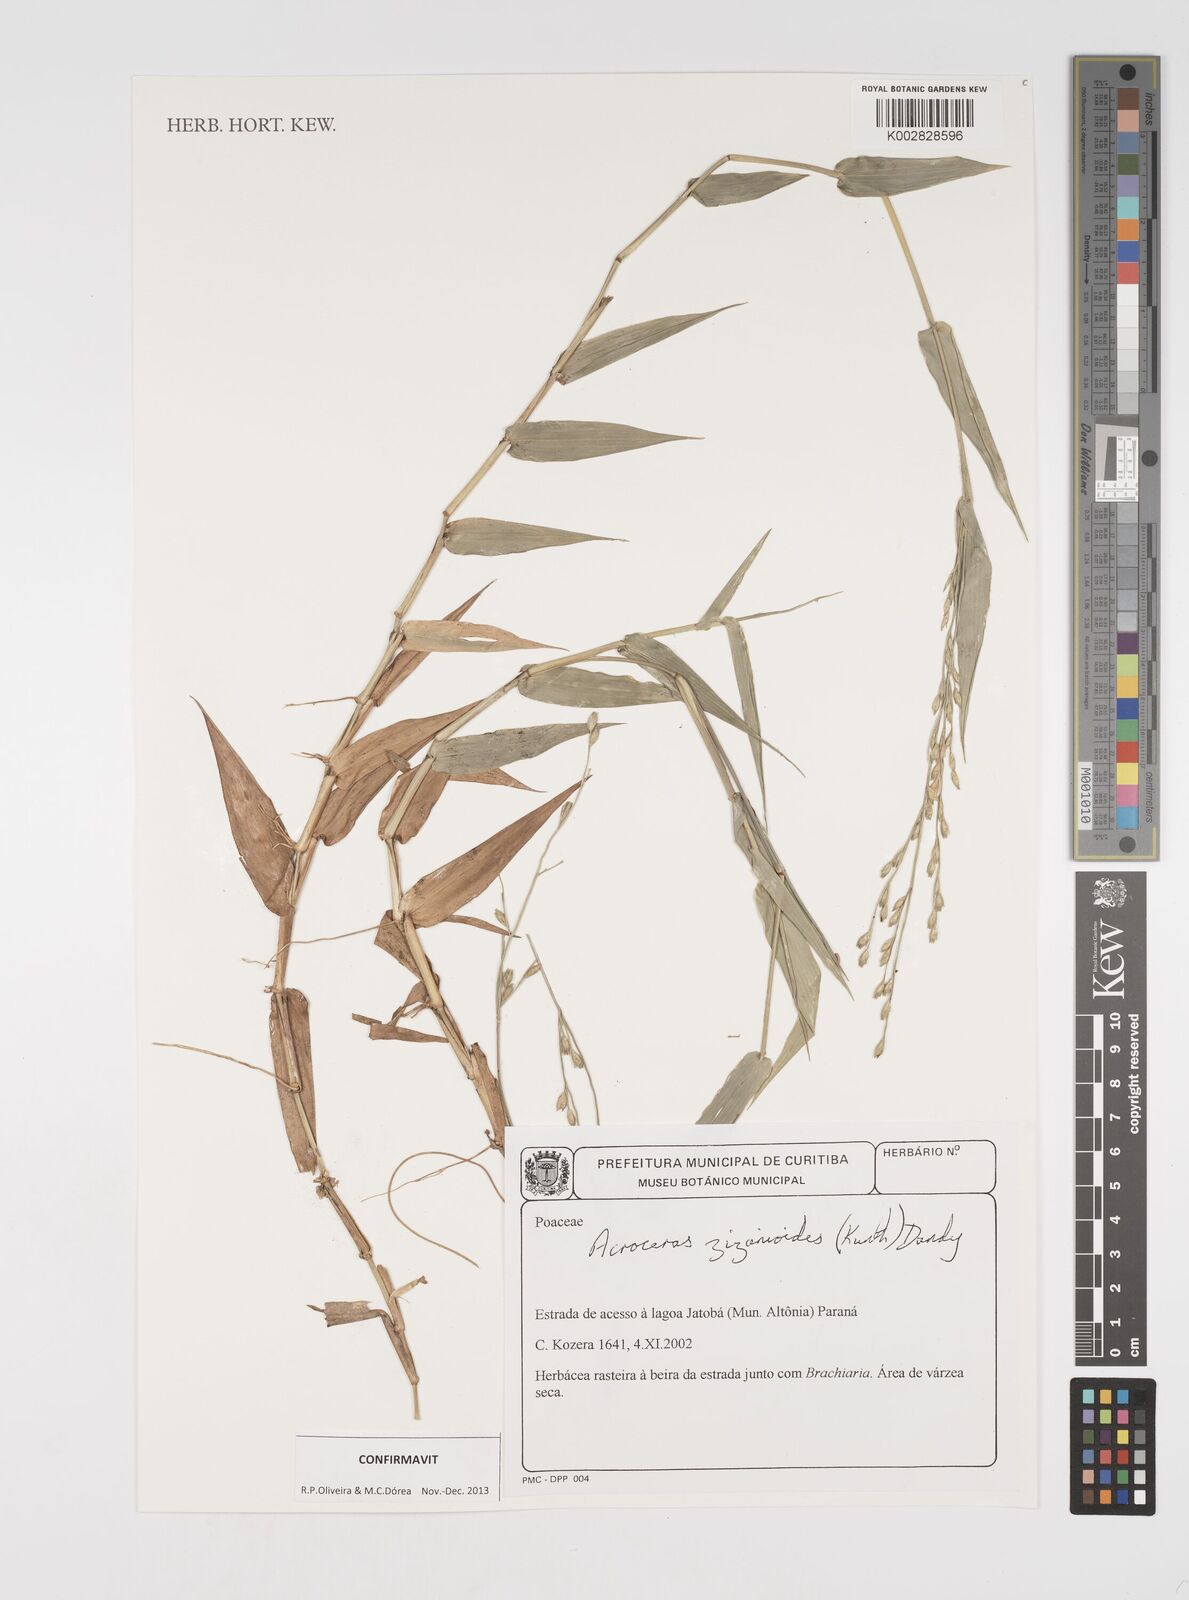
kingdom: Plantae
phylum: Tracheophyta
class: Liliopsida
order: Poales
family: Poaceae
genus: Acroceras
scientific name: Acroceras zizanioides
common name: Oat grass
